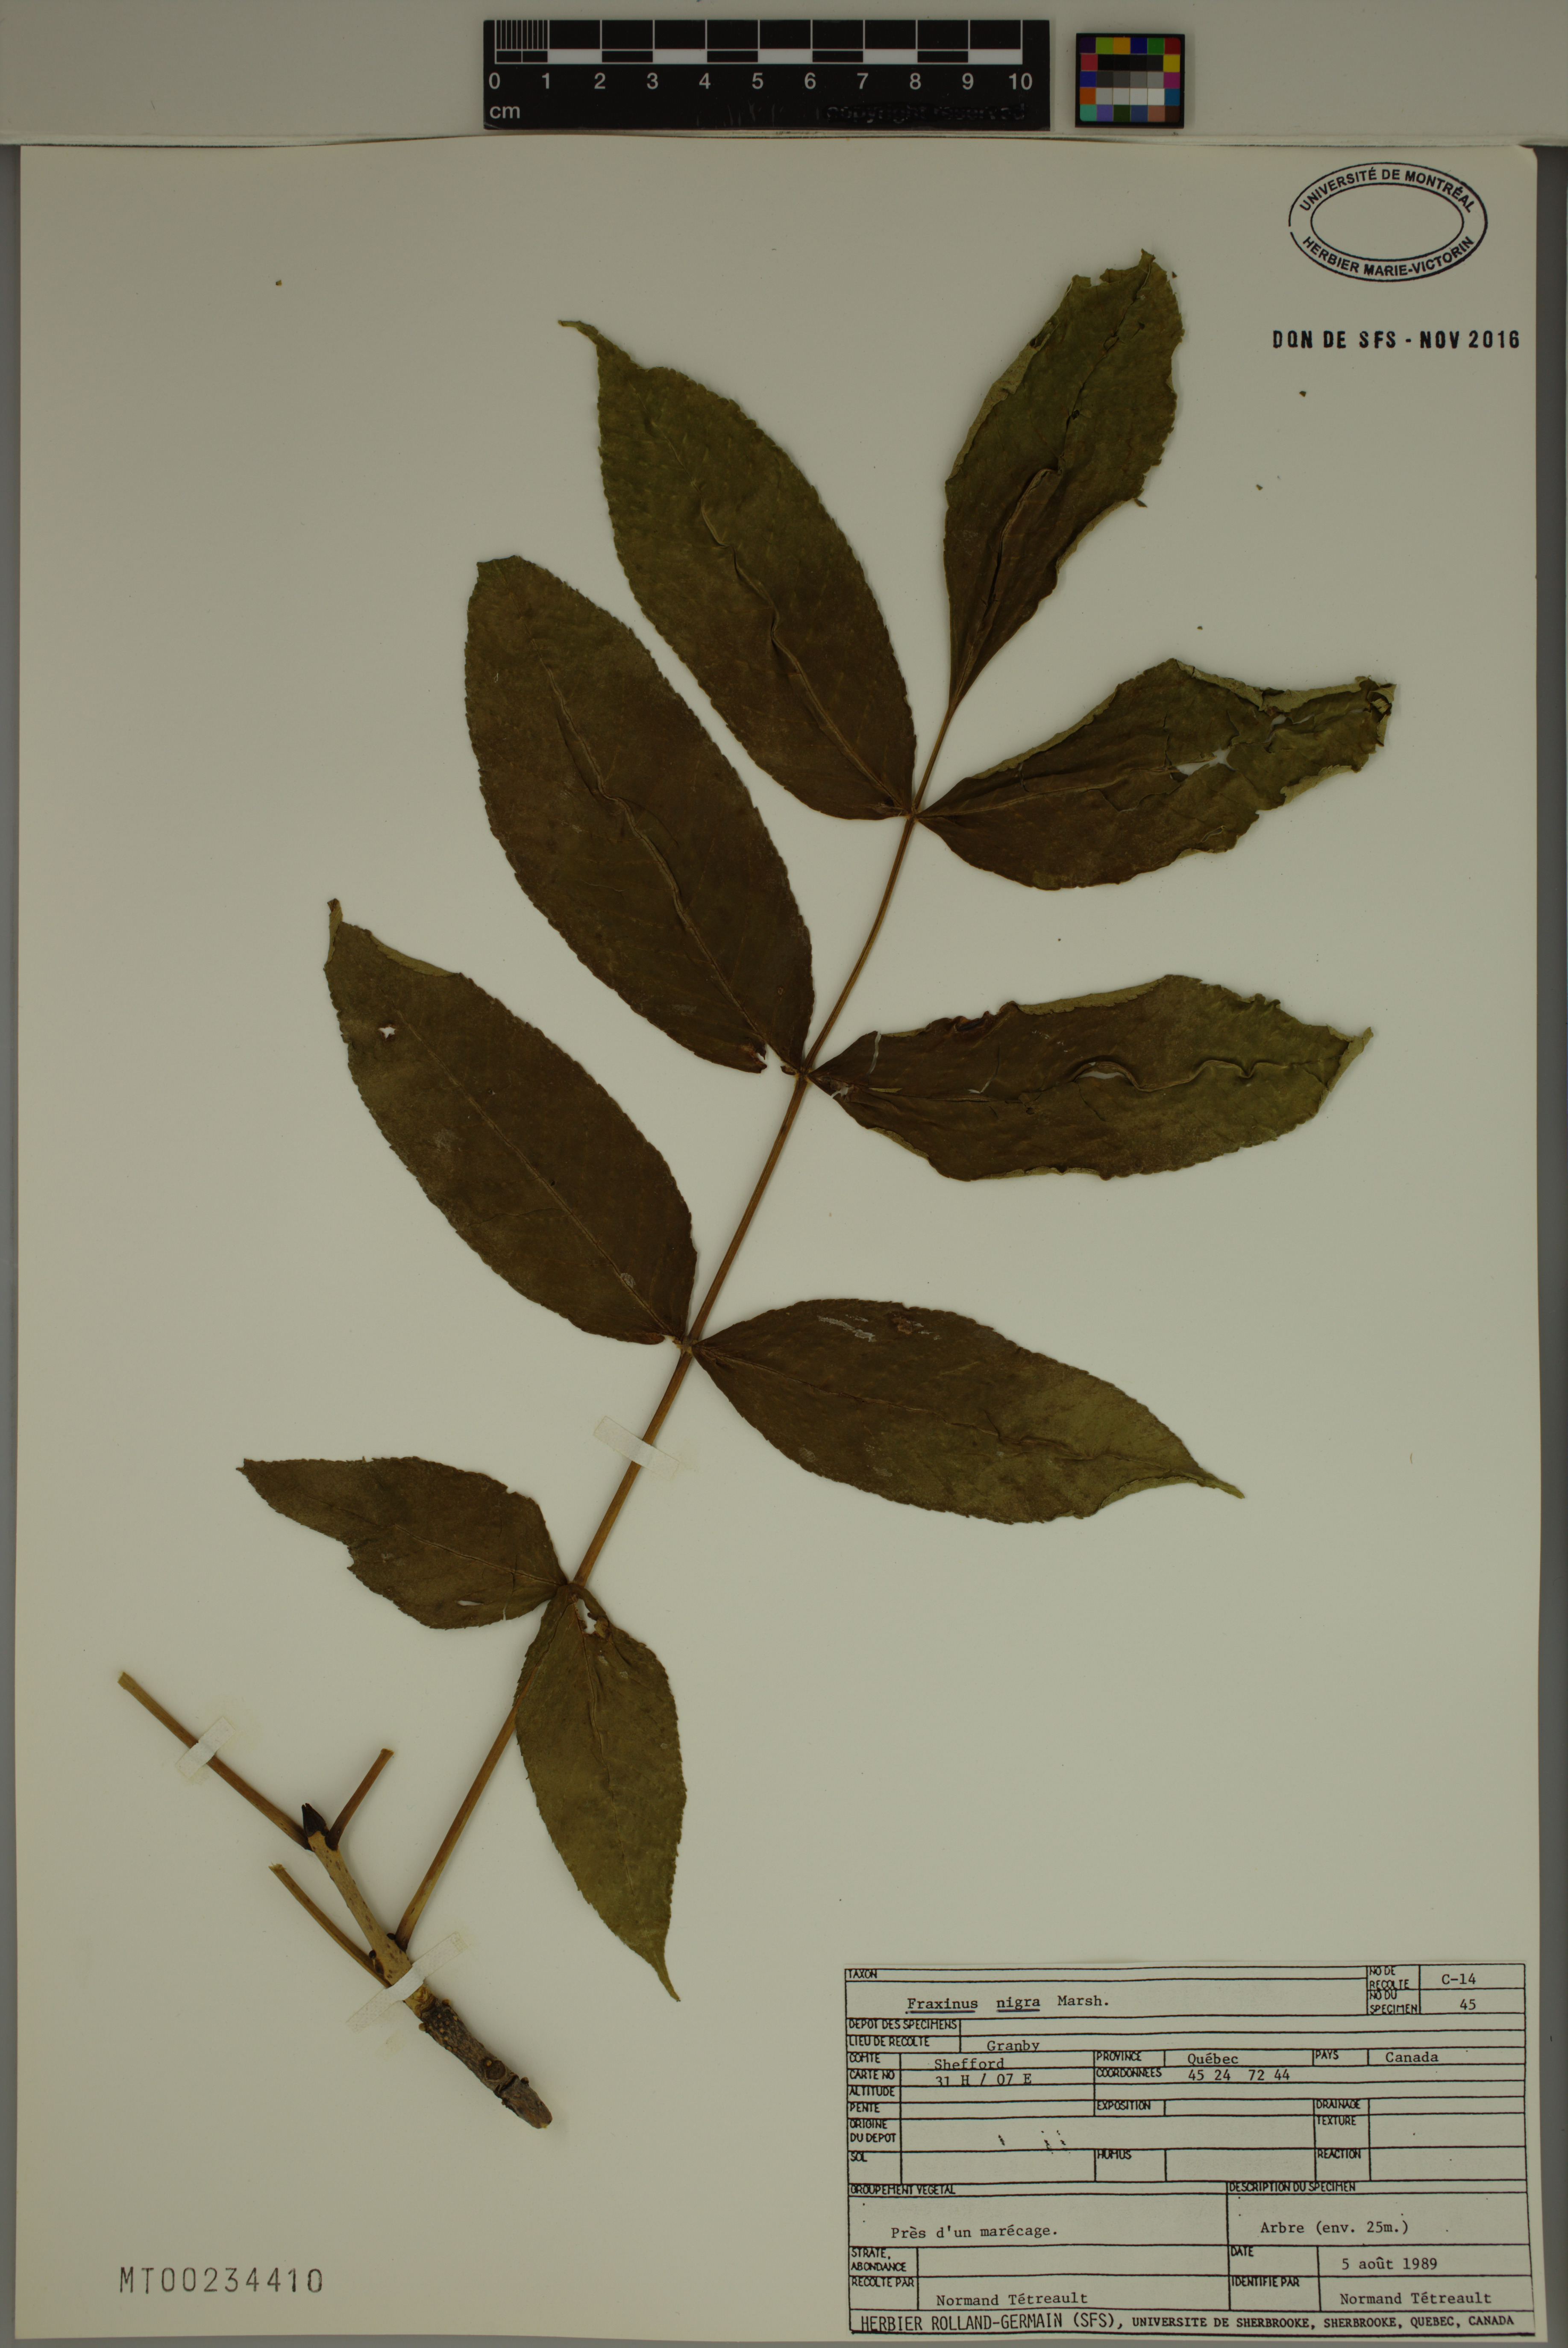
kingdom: Plantae
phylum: Tracheophyta
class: Magnoliopsida
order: Lamiales
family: Oleaceae
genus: Fraxinus
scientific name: Fraxinus nigra
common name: Black ash
